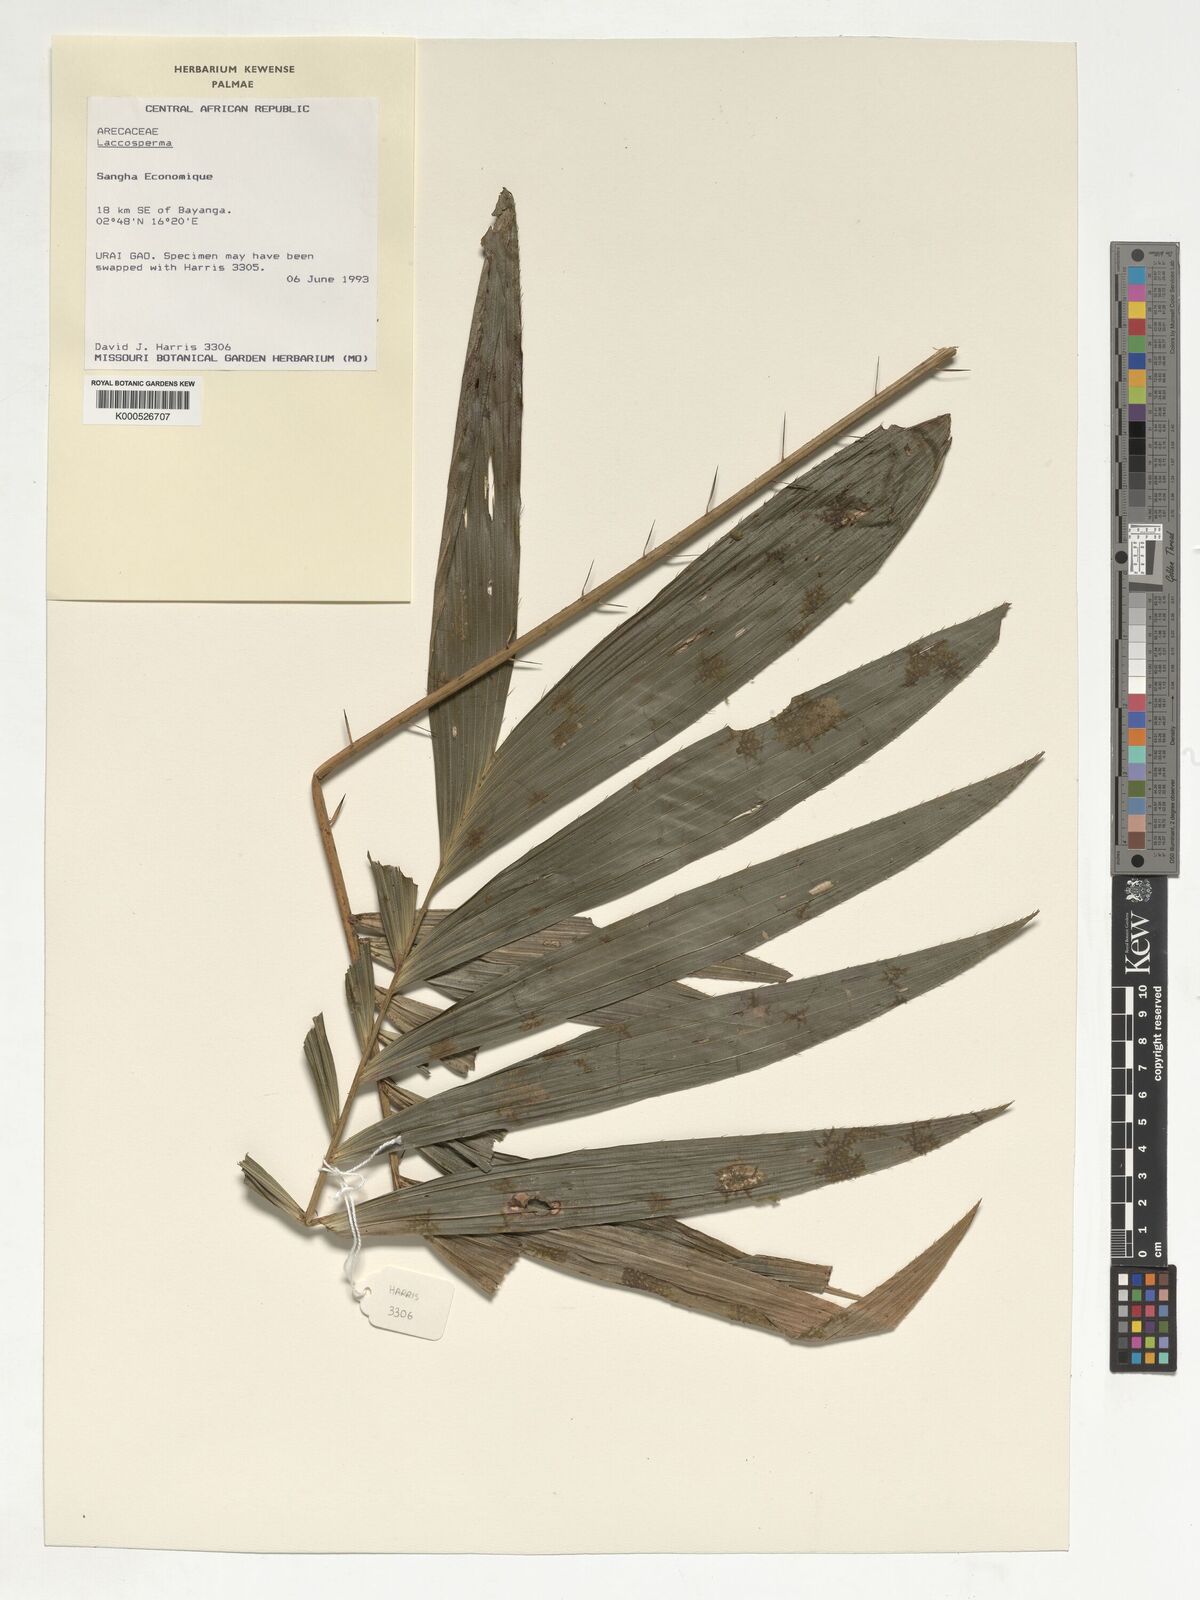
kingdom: Plantae
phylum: Tracheophyta
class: Liliopsida
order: Arecales
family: Arecaceae
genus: Laccosperma
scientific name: Laccosperma
